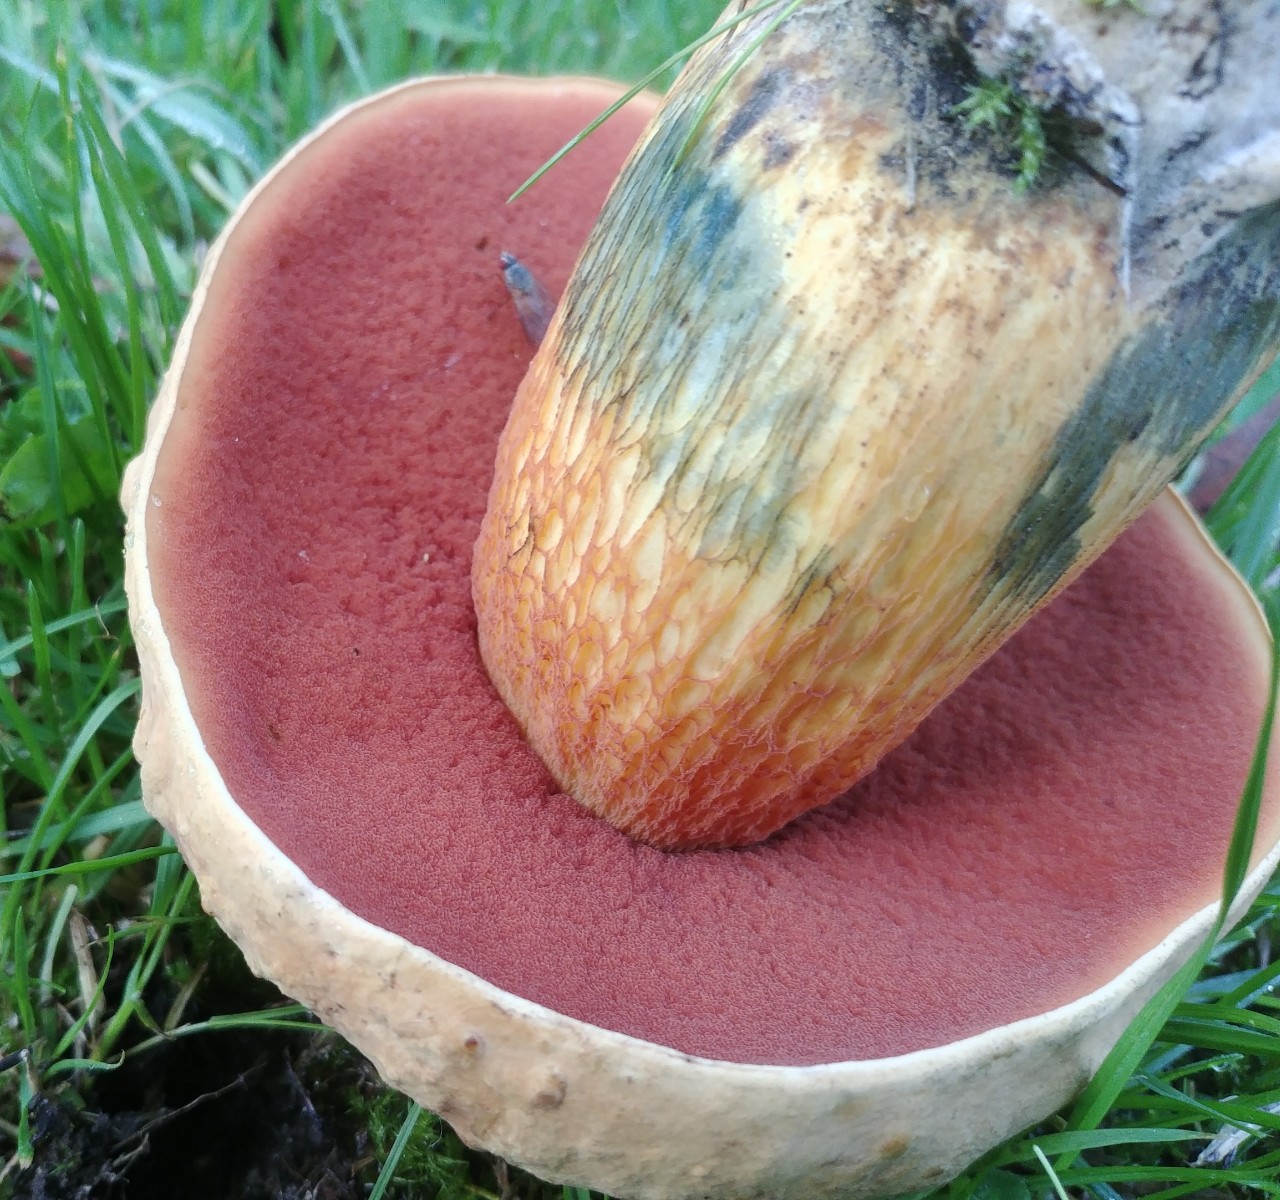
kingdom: Fungi
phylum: Basidiomycota
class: Agaricomycetes
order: Boletales
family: Boletaceae
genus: Suillellus
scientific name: Suillellus luridus
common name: netstokket indigorørhat
